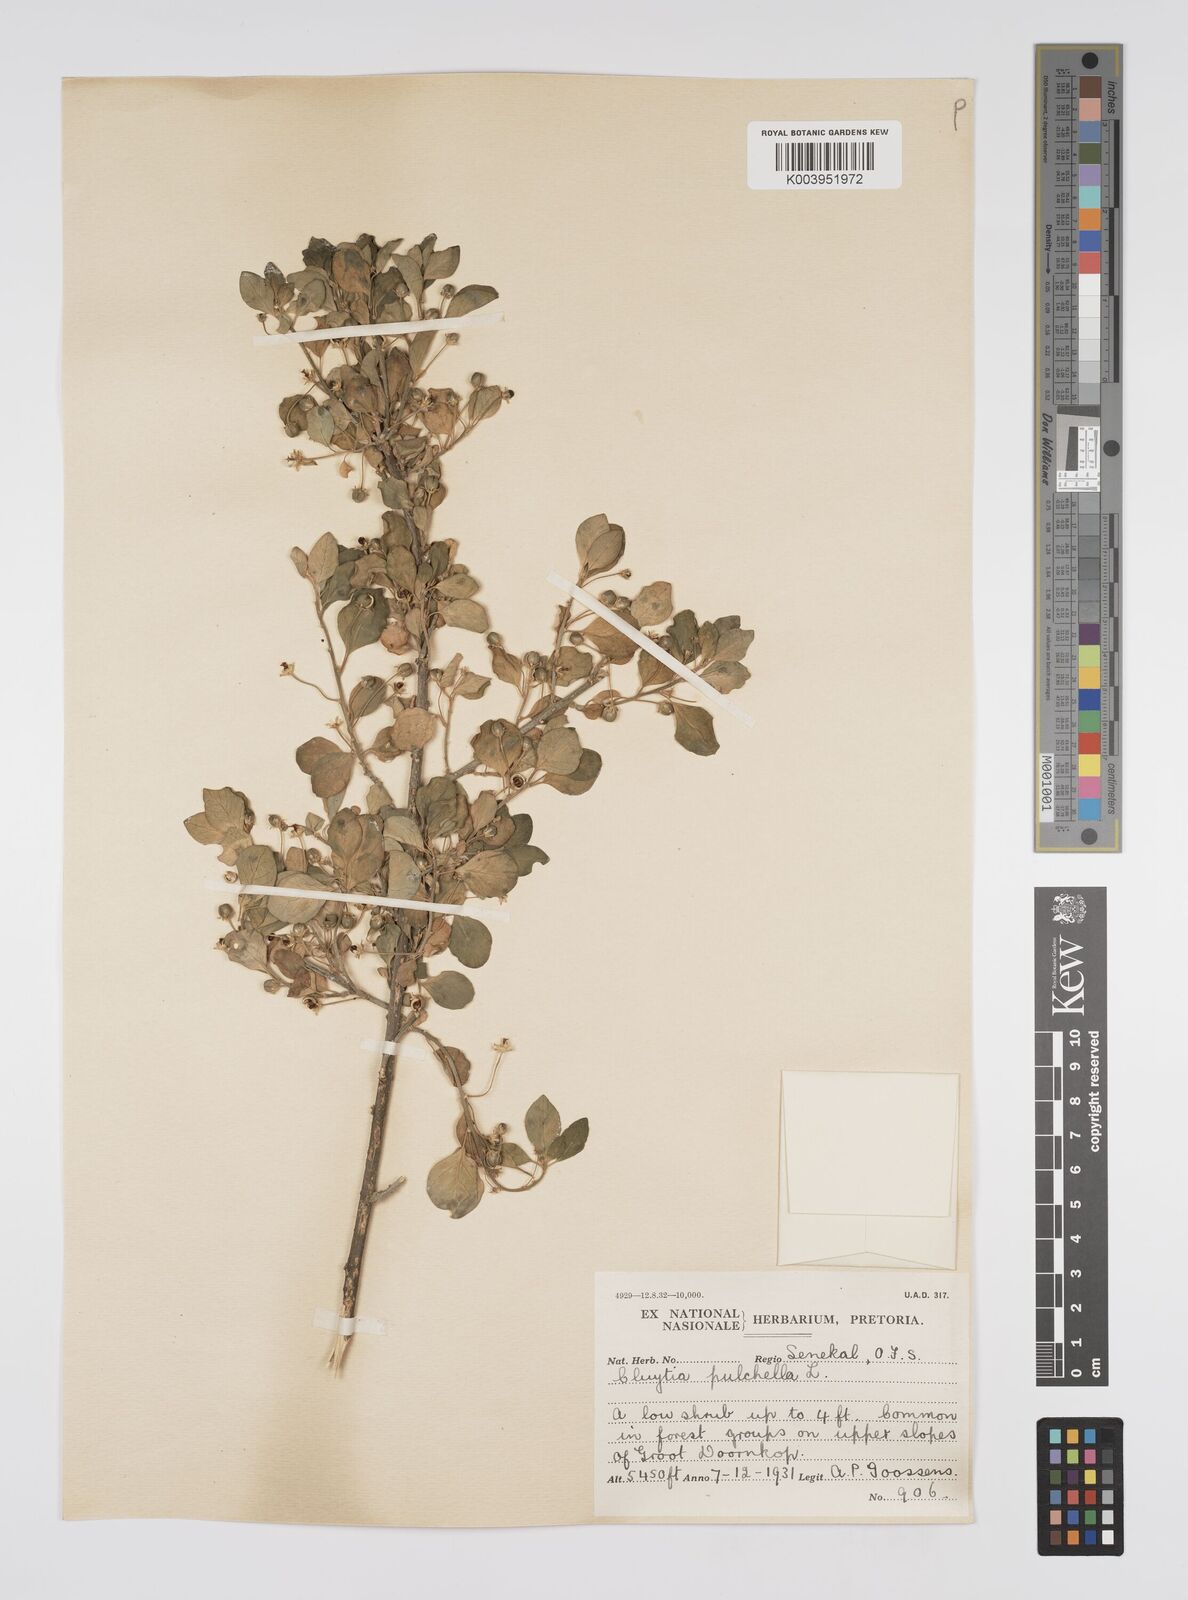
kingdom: Plantae
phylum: Tracheophyta
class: Magnoliopsida
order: Malpighiales
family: Peraceae
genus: Clutia
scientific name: Clutia pulchella
